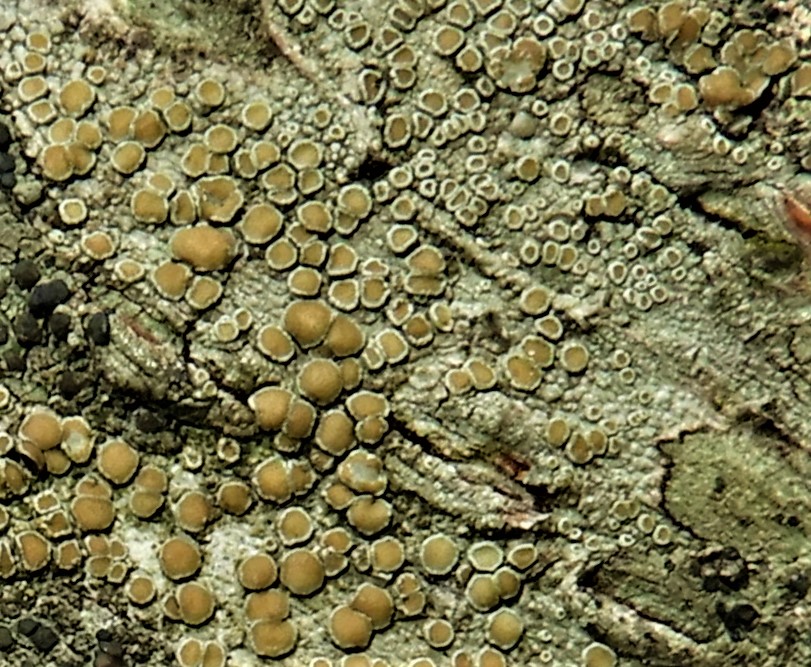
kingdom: Fungi
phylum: Ascomycota
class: Lecanoromycetes
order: Lecanorales
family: Lecanoraceae
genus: Lecanora
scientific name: Lecanora chlarotera
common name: brun kantskivelav
